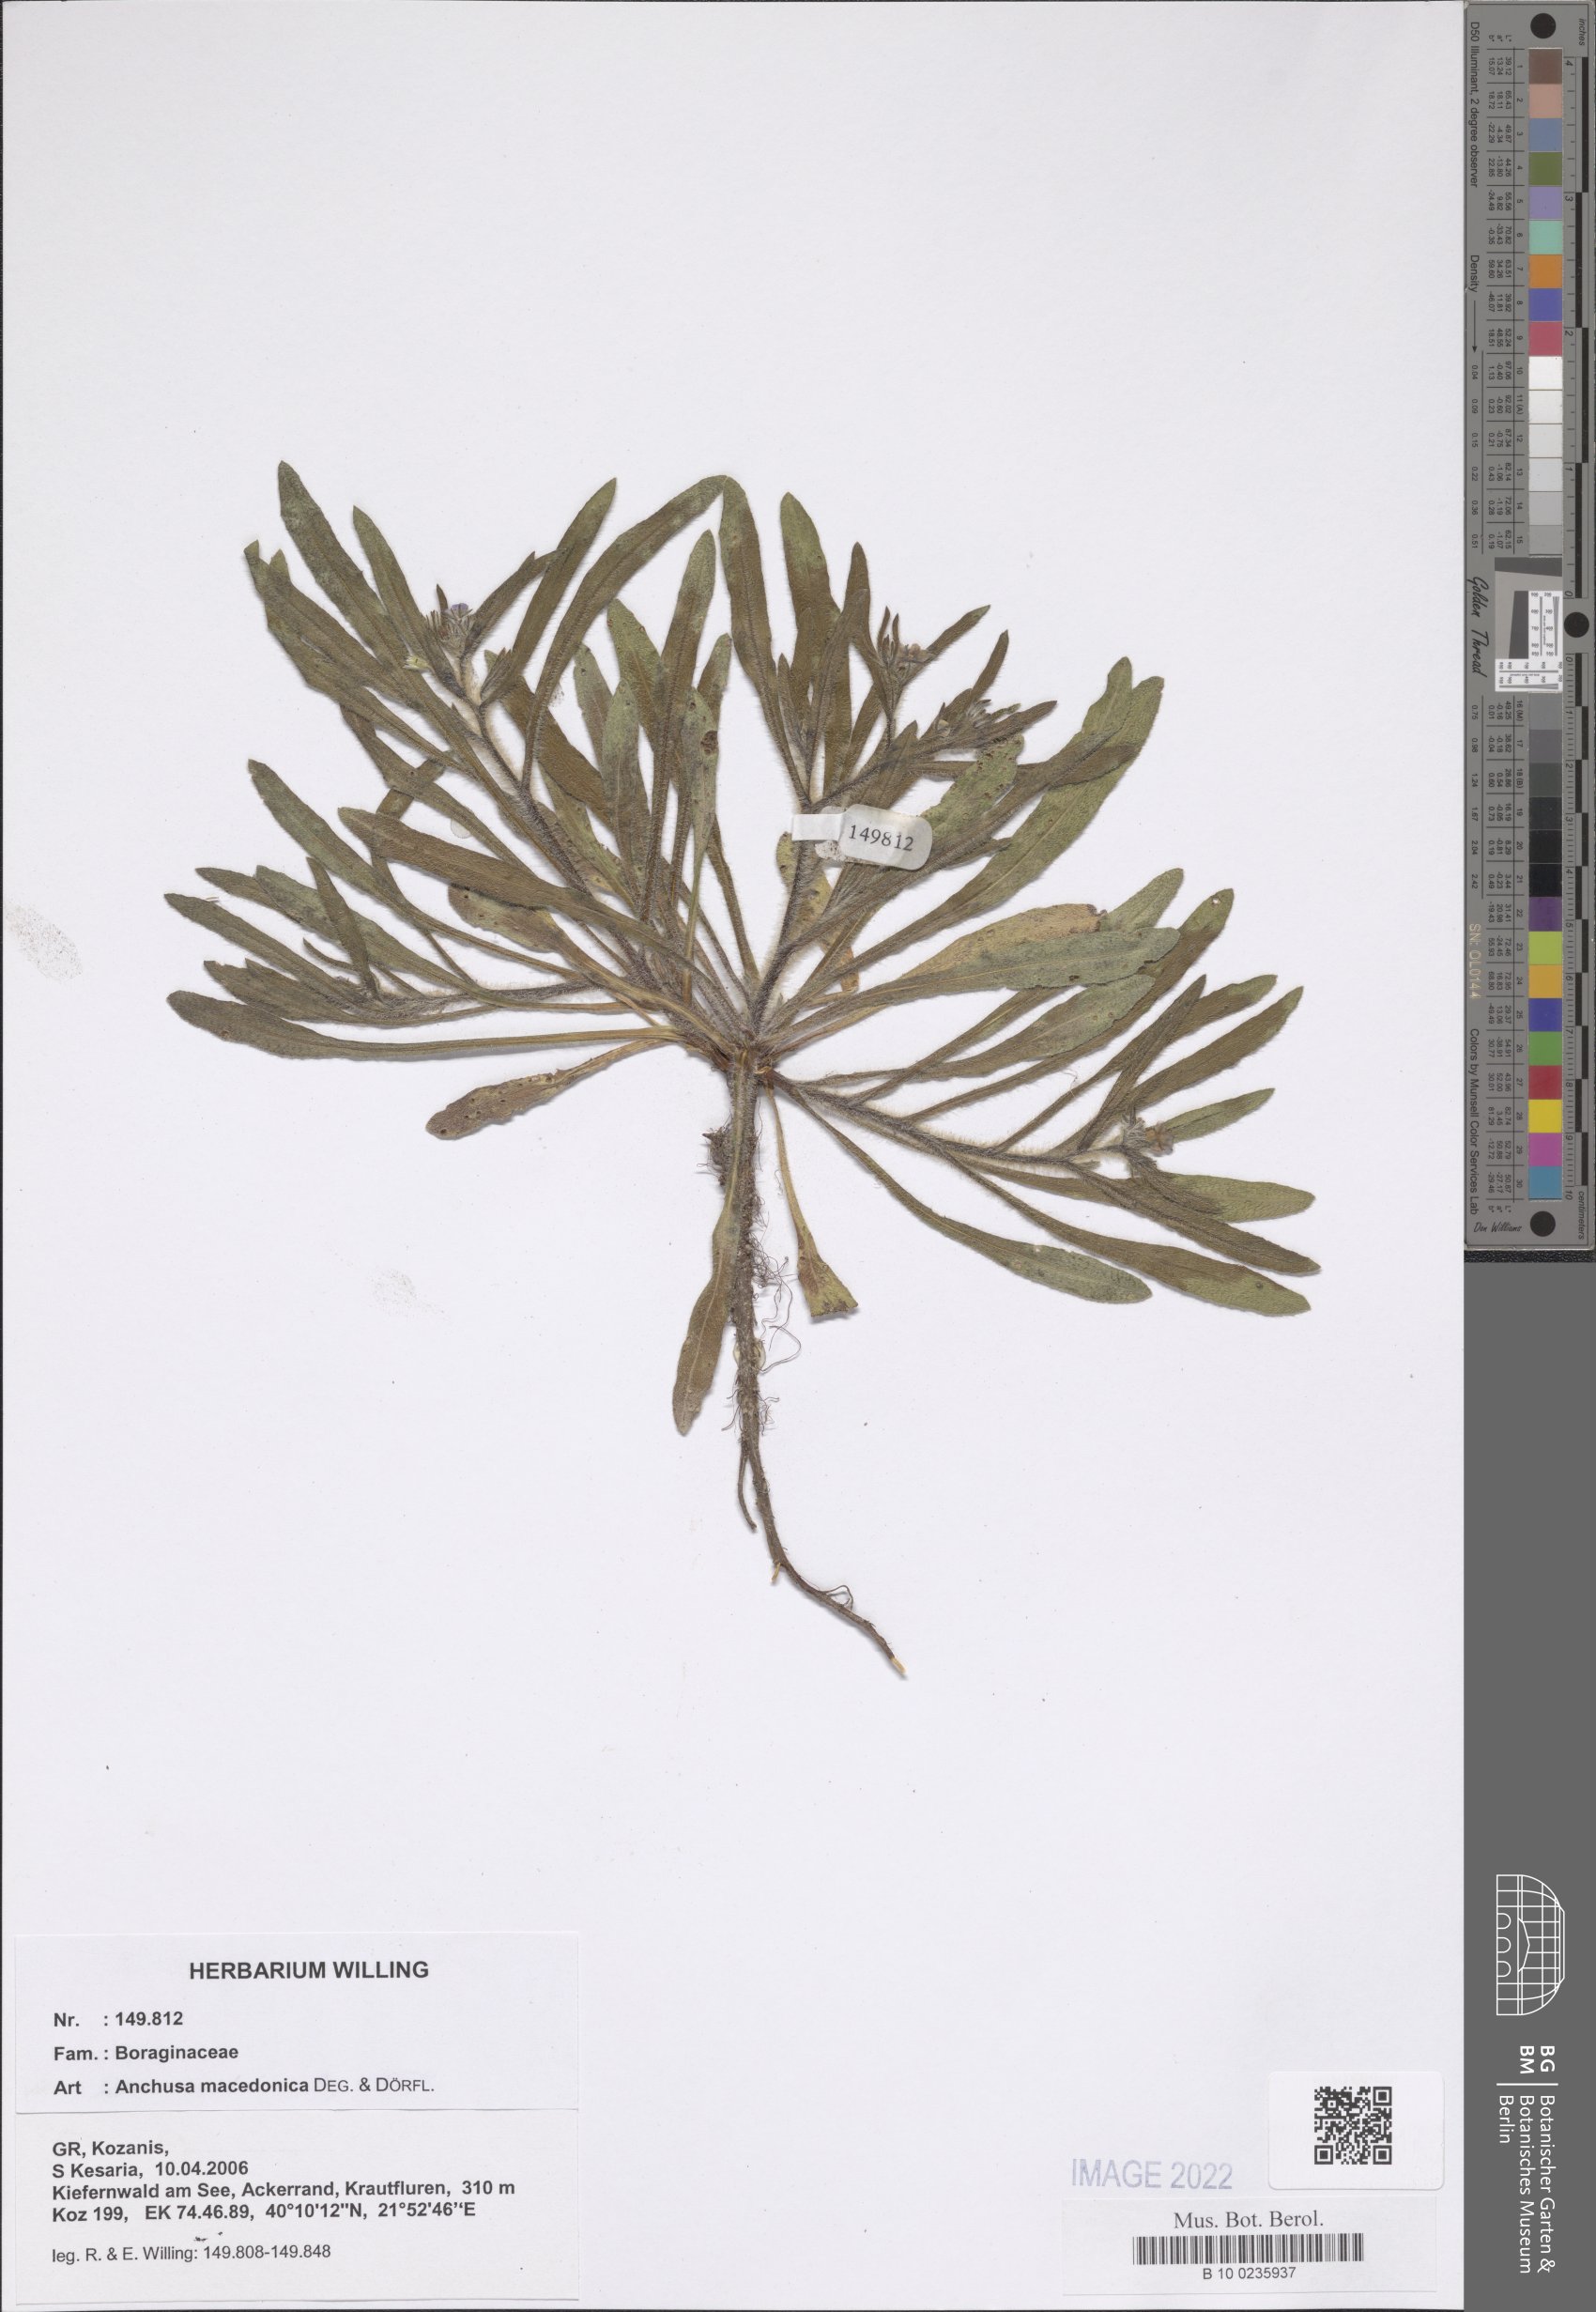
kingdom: Plantae
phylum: Tracheophyta
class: Magnoliopsida
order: Boraginales
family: Boraginaceae
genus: Anchusa
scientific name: Anchusa officinalis
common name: Alkanet
